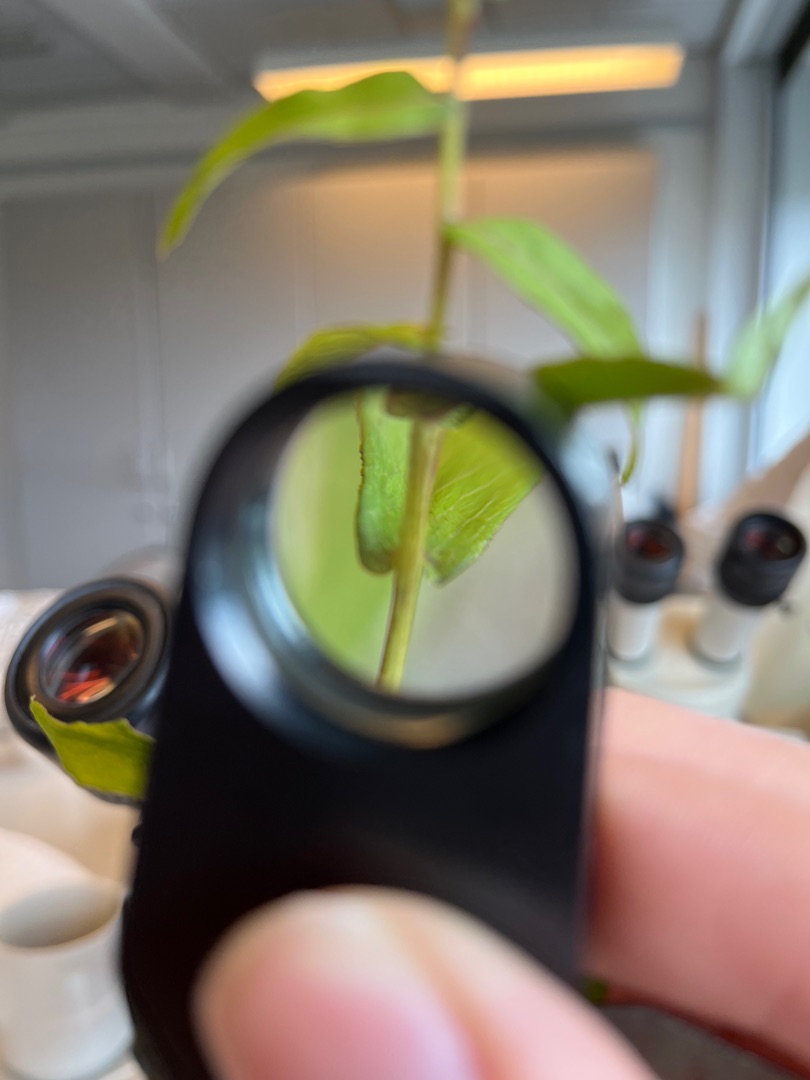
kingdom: Plantae
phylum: Tracheophyta
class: Magnoliopsida
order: Asterales
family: Asteraceae
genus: Pentanema
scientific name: Pentanema salicinum
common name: Pile-alant
